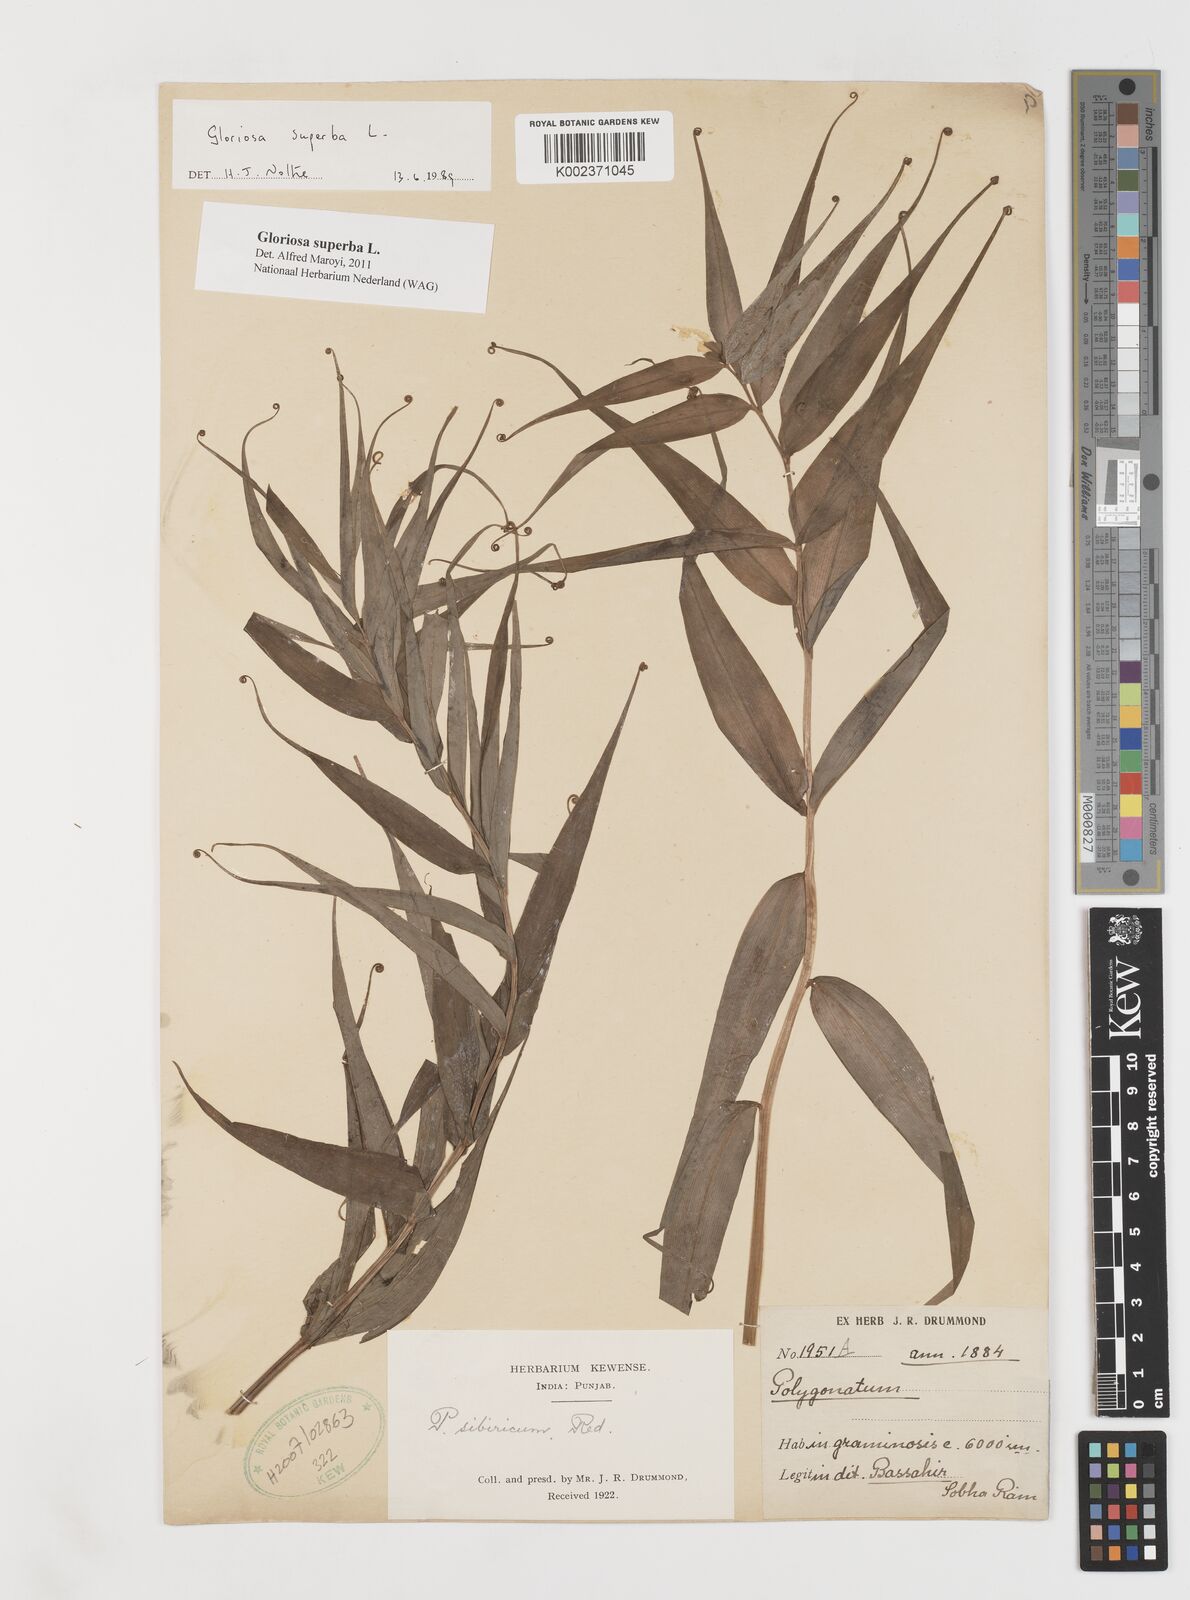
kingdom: Plantae
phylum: Tracheophyta
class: Liliopsida
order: Liliales
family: Colchicaceae
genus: Gloriosa
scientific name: Gloriosa superba
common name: Flame lily
